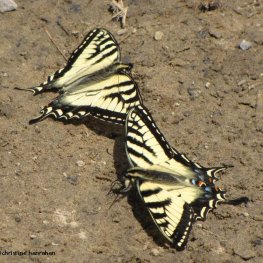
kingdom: Animalia
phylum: Arthropoda
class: Insecta
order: Lepidoptera
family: Papilionidae
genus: Pterourus
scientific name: Pterourus canadensis
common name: Canadian Tiger Swallowtail
